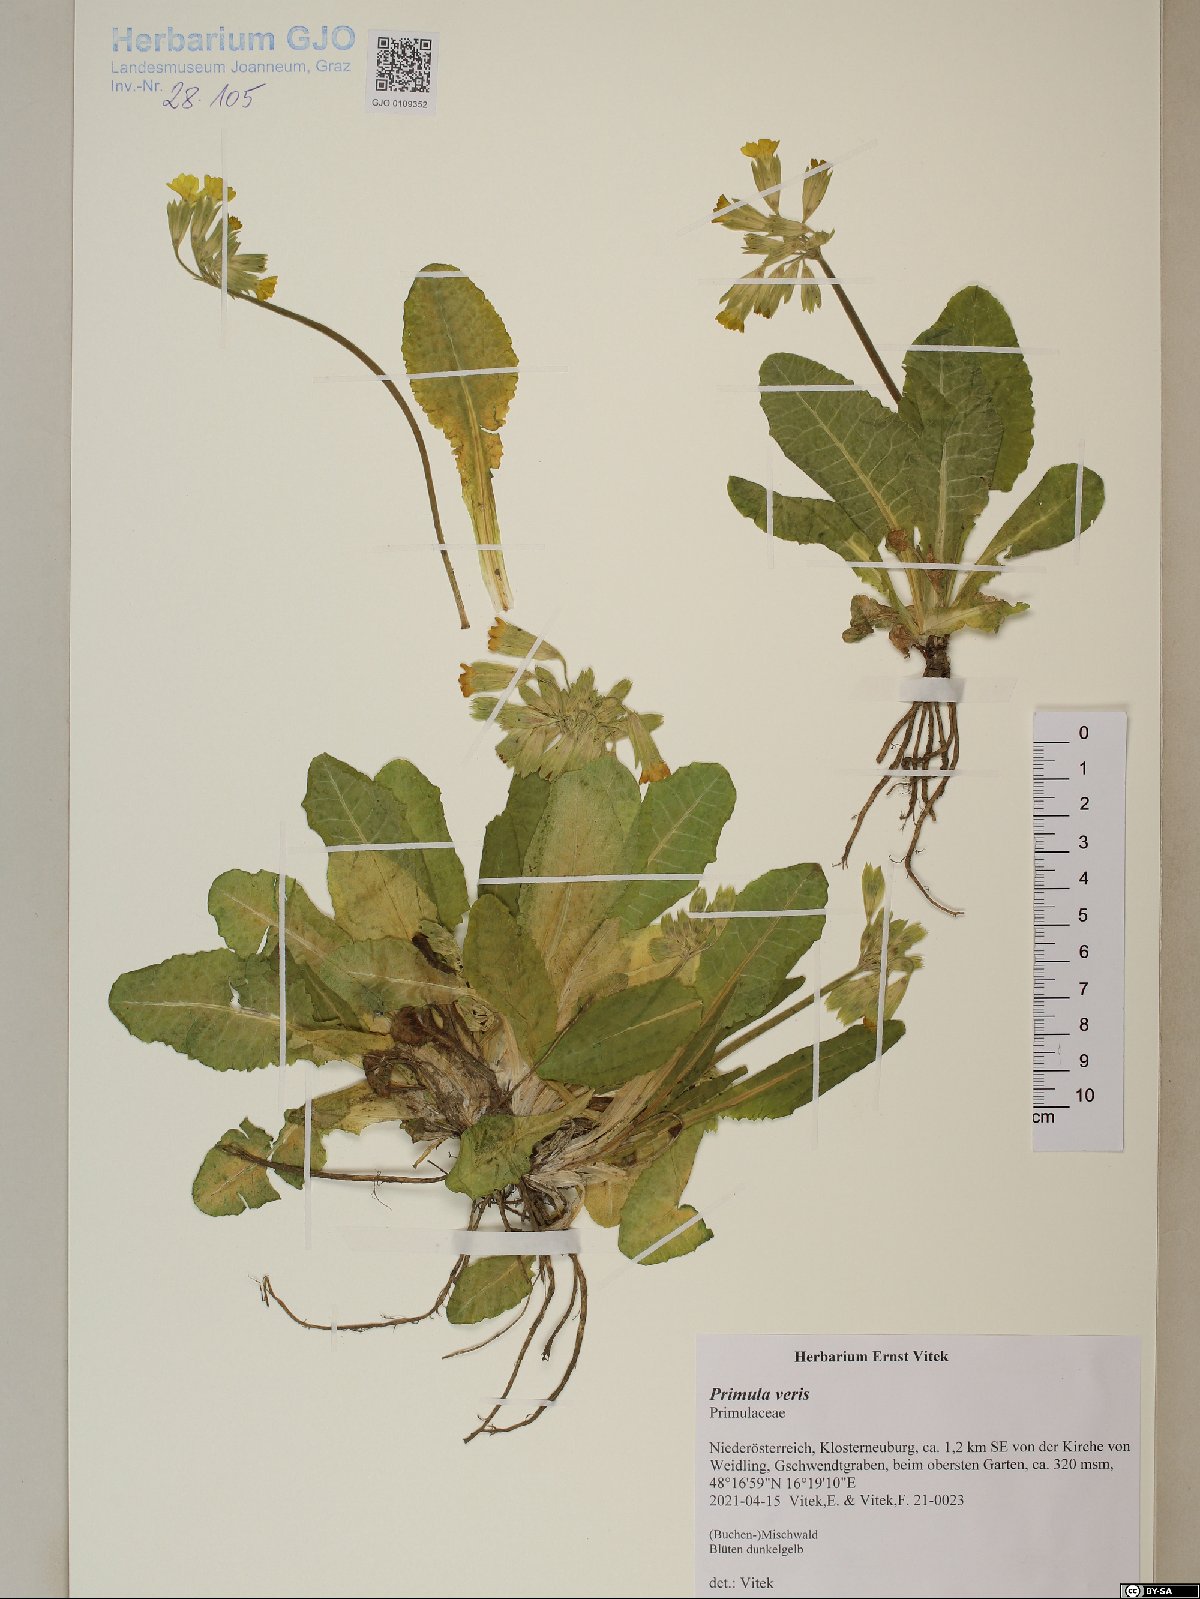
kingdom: Plantae
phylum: Tracheophyta
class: Magnoliopsida
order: Ericales
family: Primulaceae
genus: Primula
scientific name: Primula veris
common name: Cowslip
